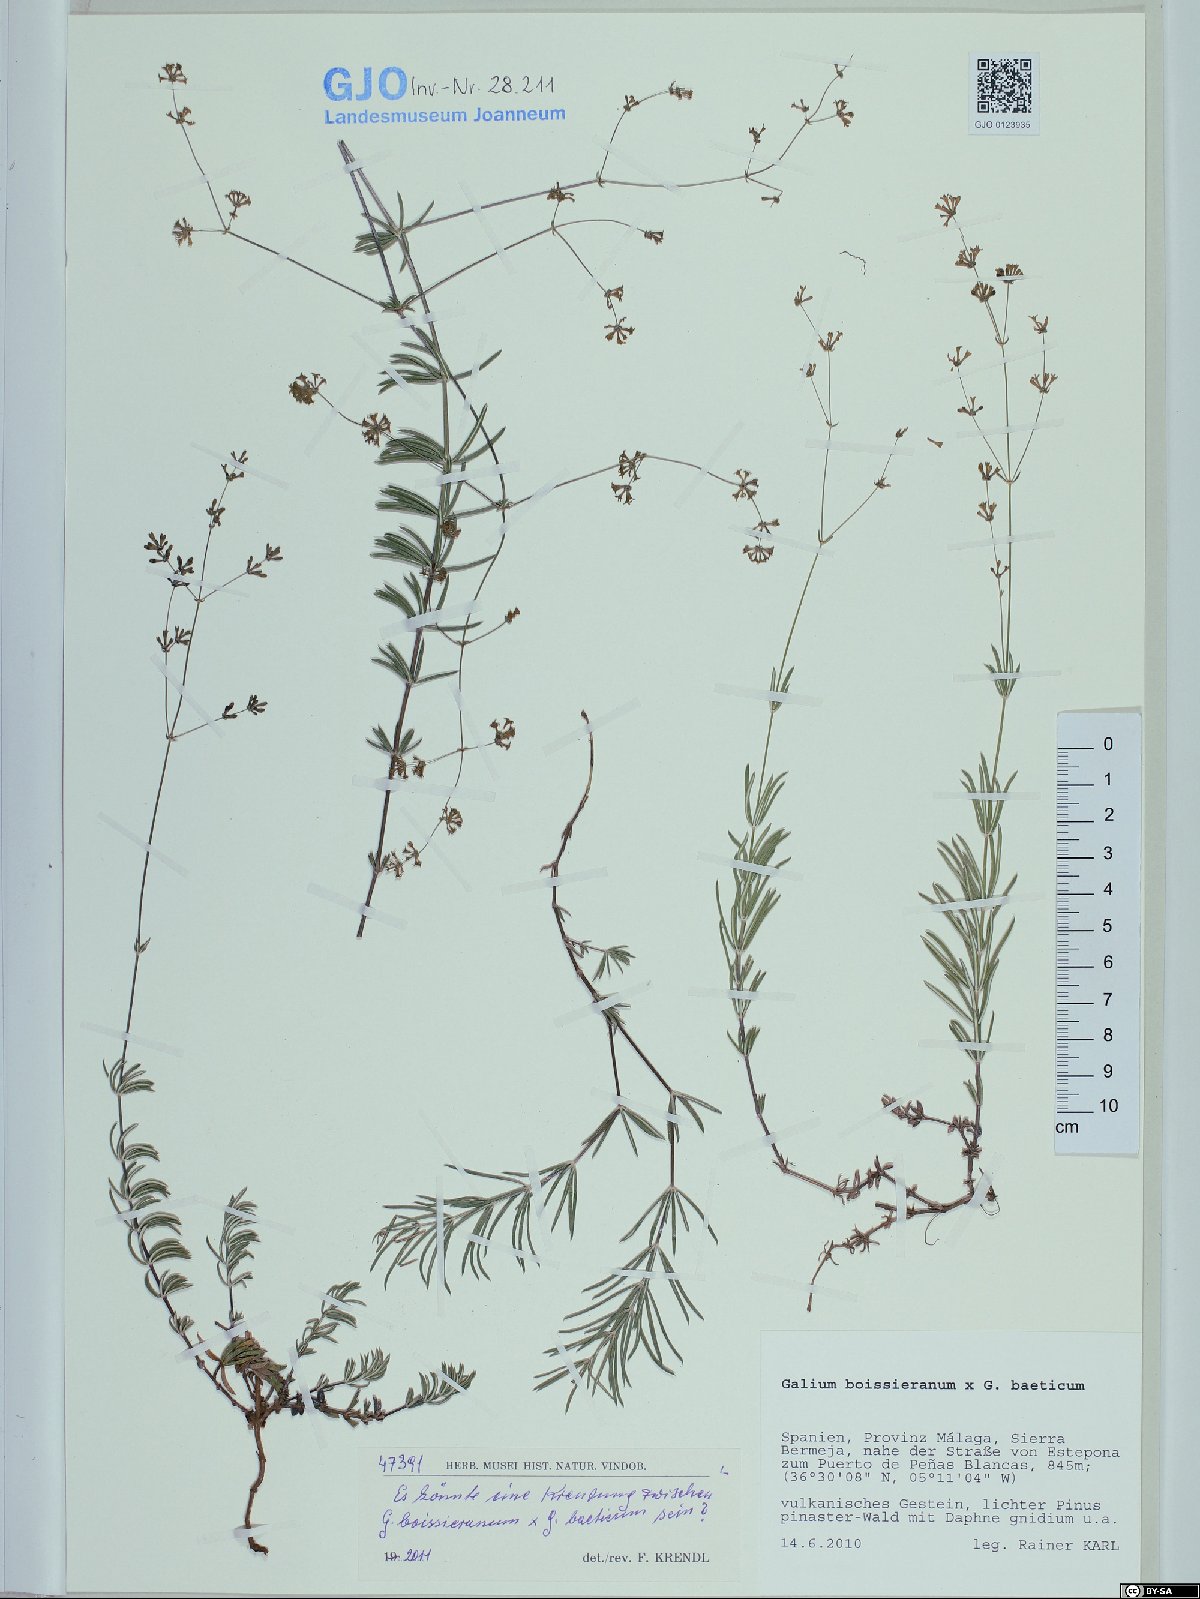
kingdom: Plantae
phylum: Tracheophyta
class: Magnoliopsida
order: Gentianales
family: Rubiaceae
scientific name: Rubiaceae
